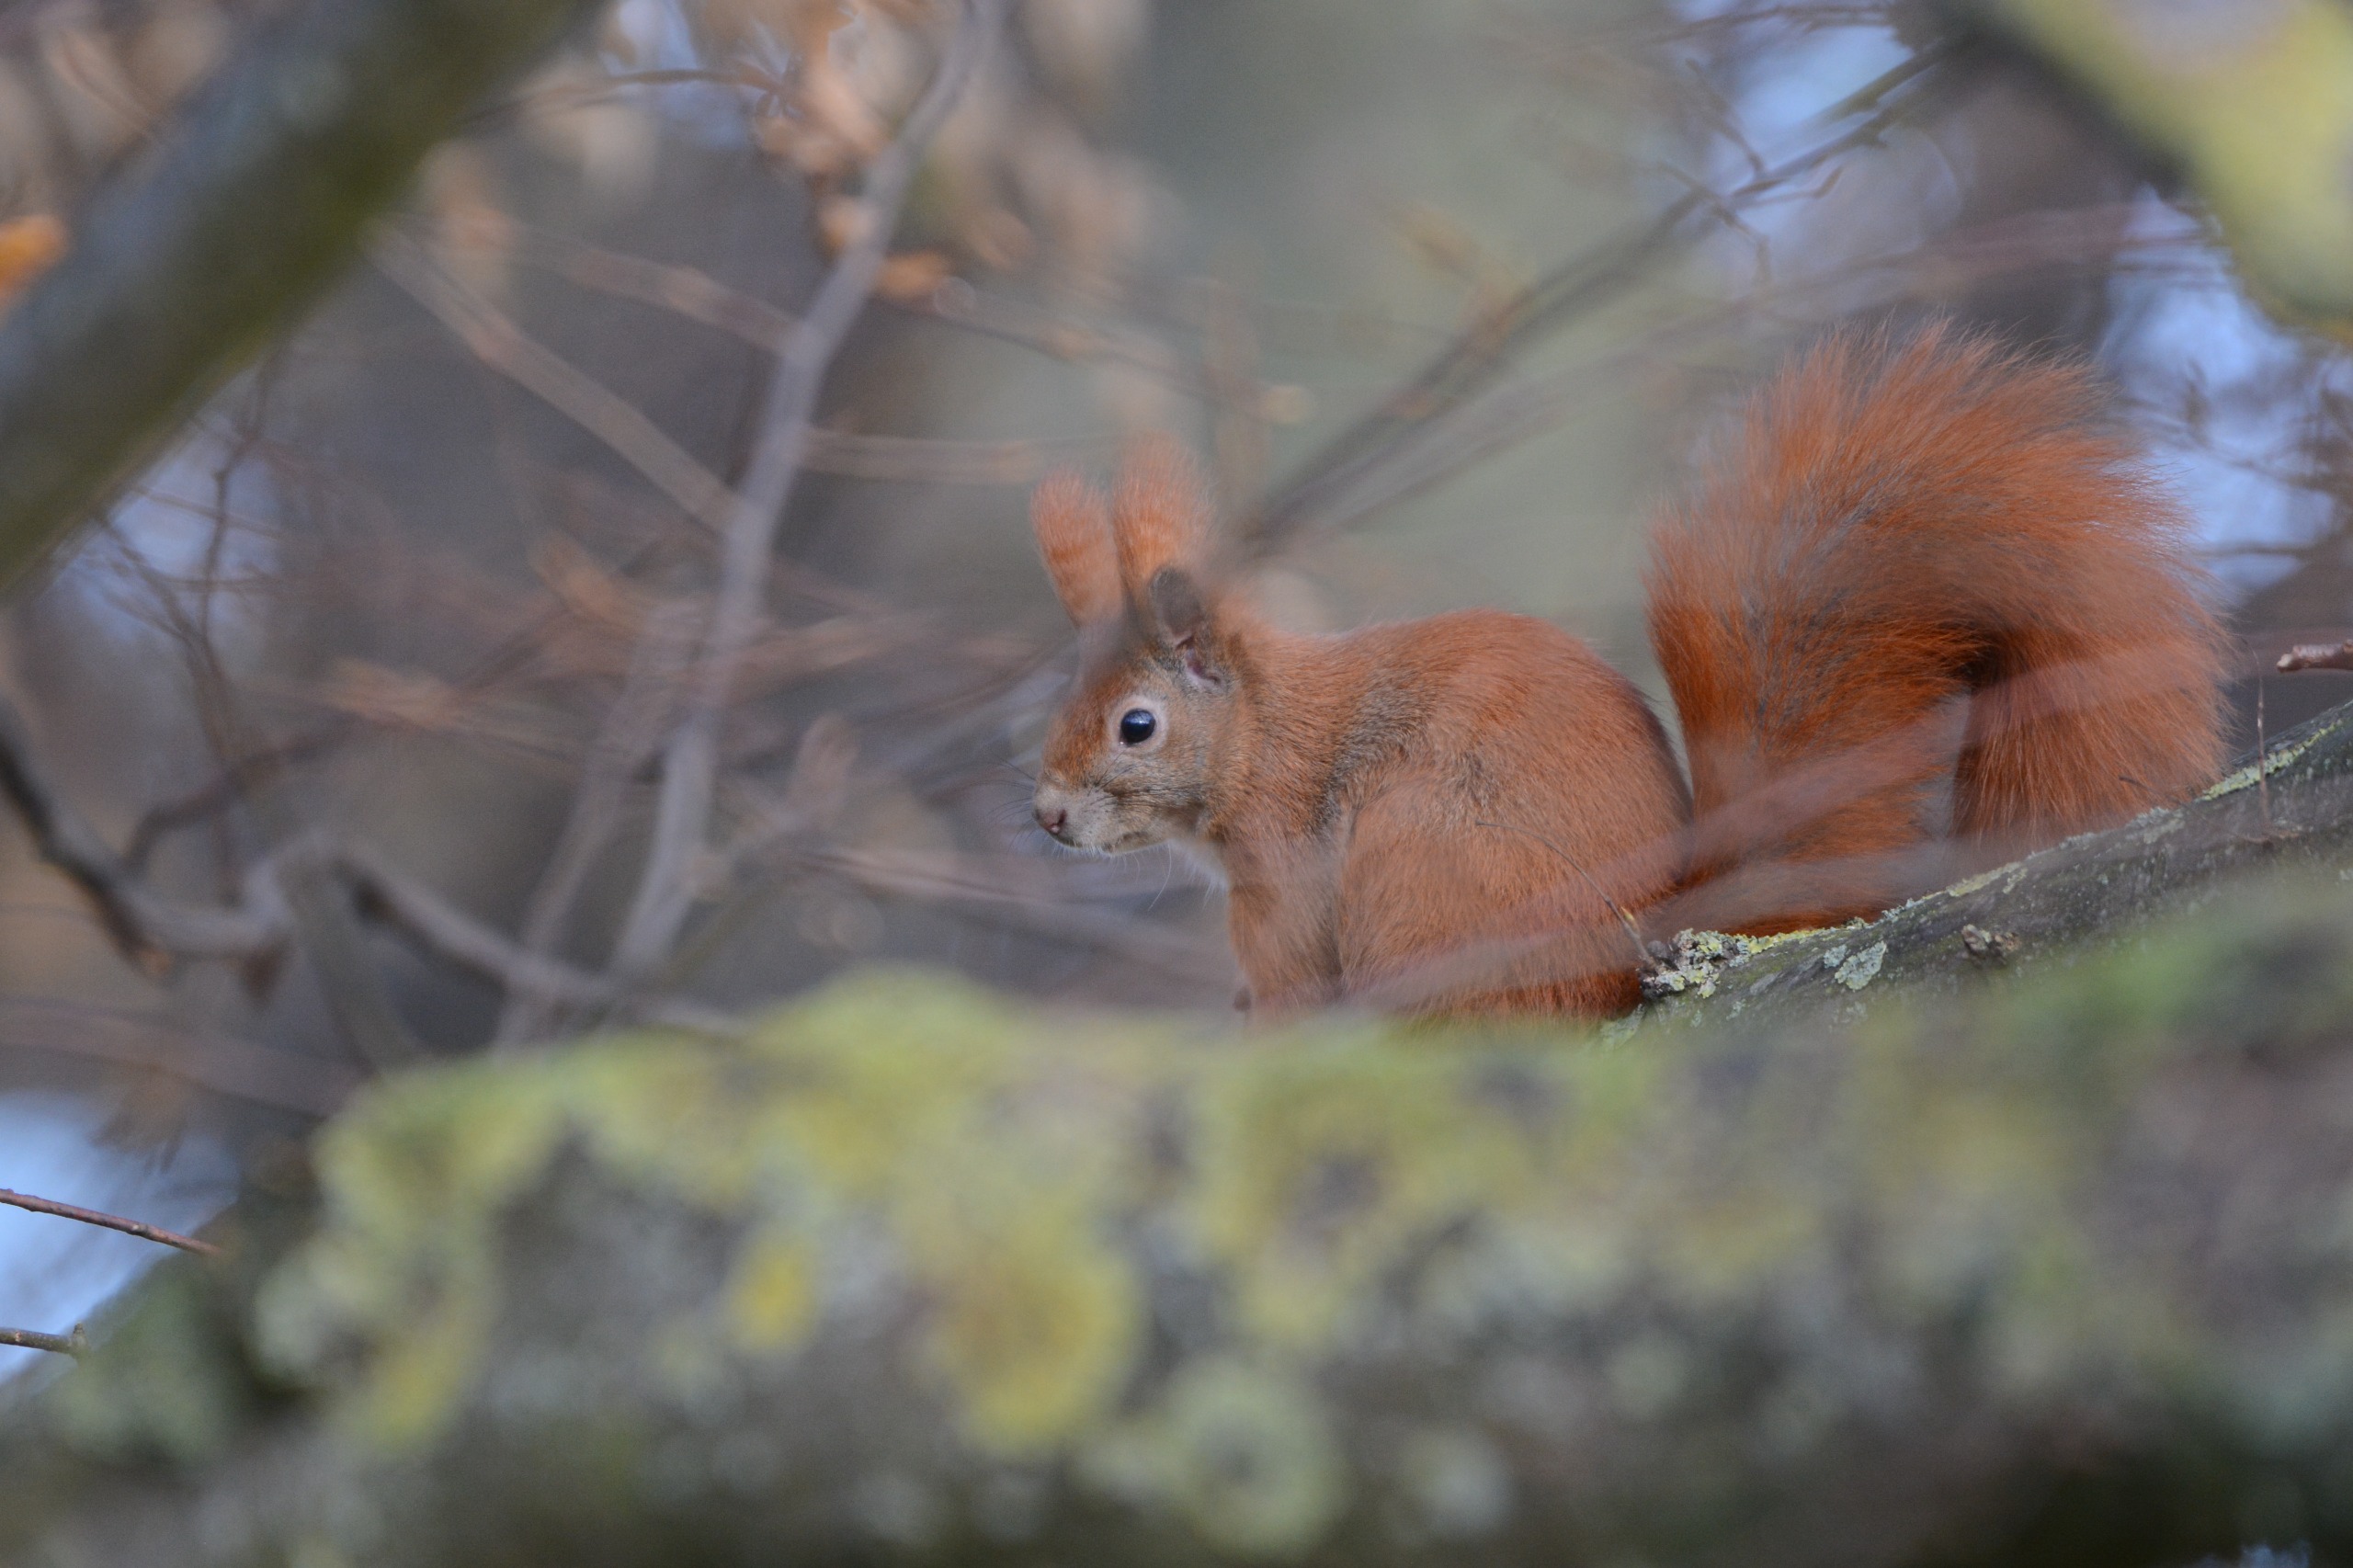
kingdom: Animalia
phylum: Chordata
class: Mammalia
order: Rodentia
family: Sciuridae
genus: Sciurus
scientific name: Sciurus vulgaris
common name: Egern
